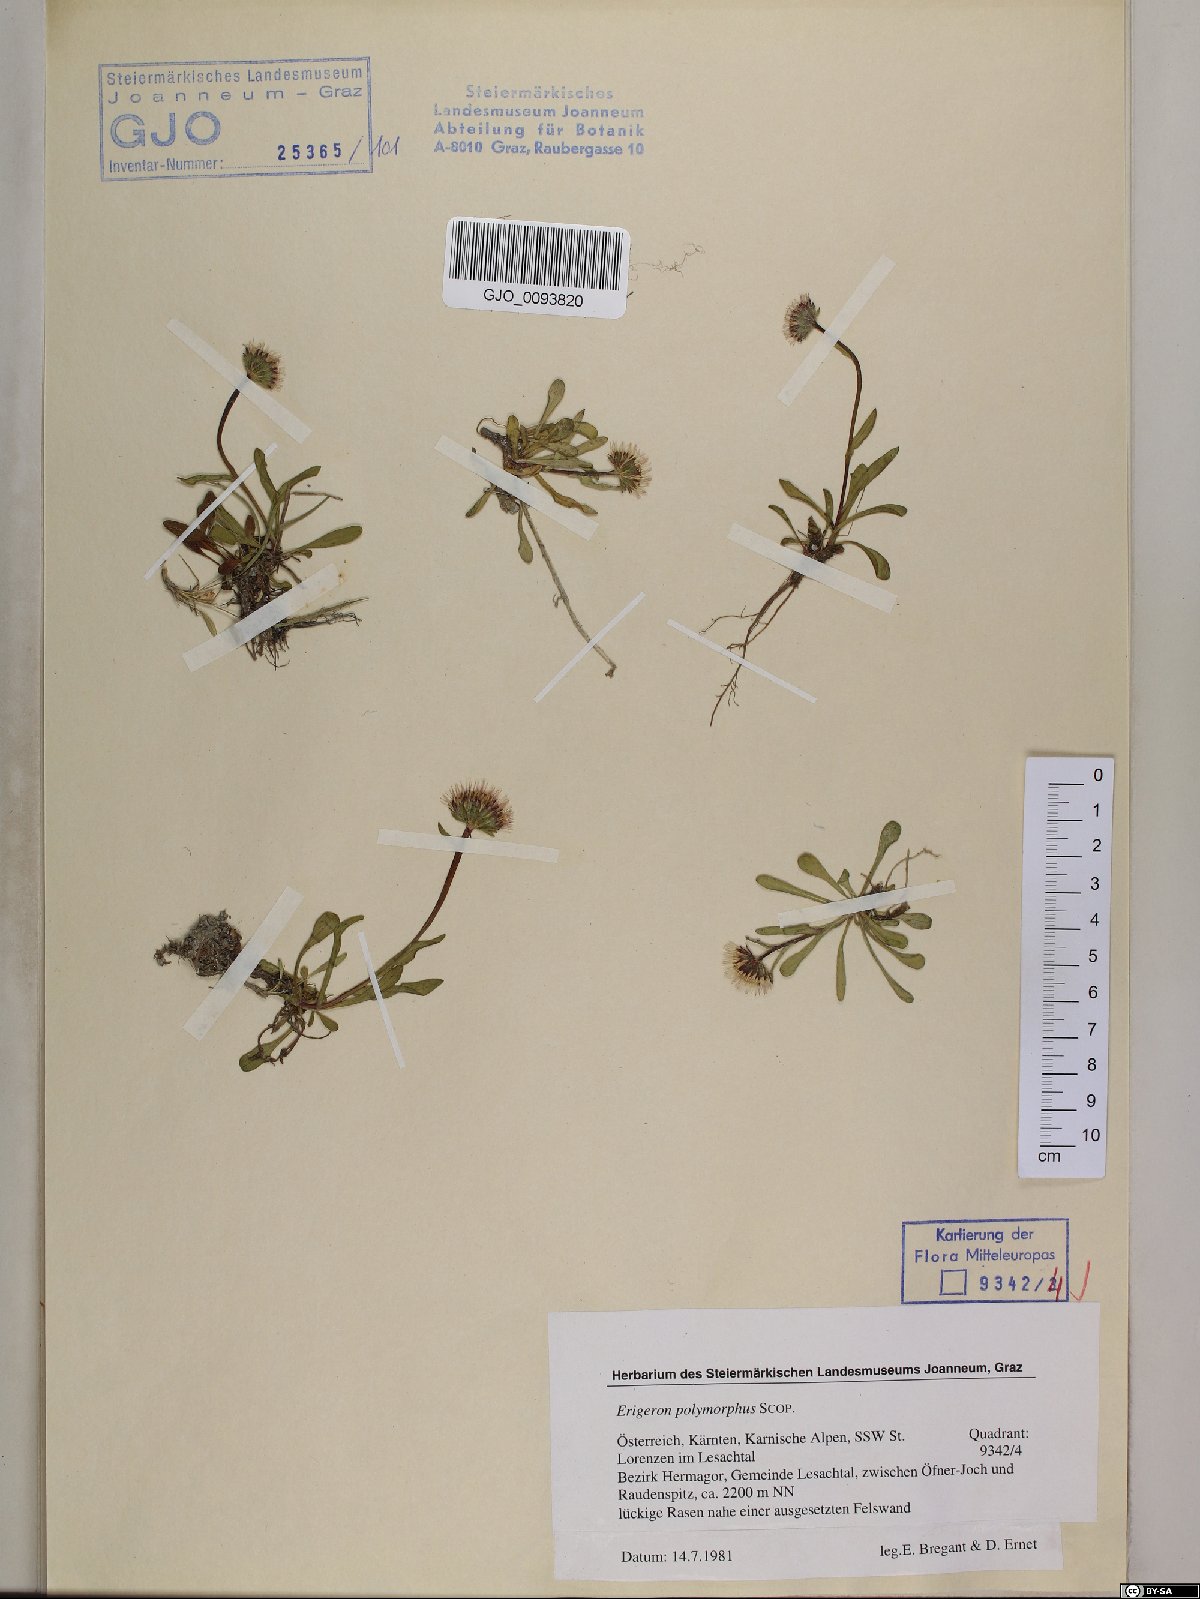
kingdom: Plantae
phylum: Tracheophyta
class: Magnoliopsida
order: Asterales
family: Asteraceae
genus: Erigeron
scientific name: Erigeron alpinus
